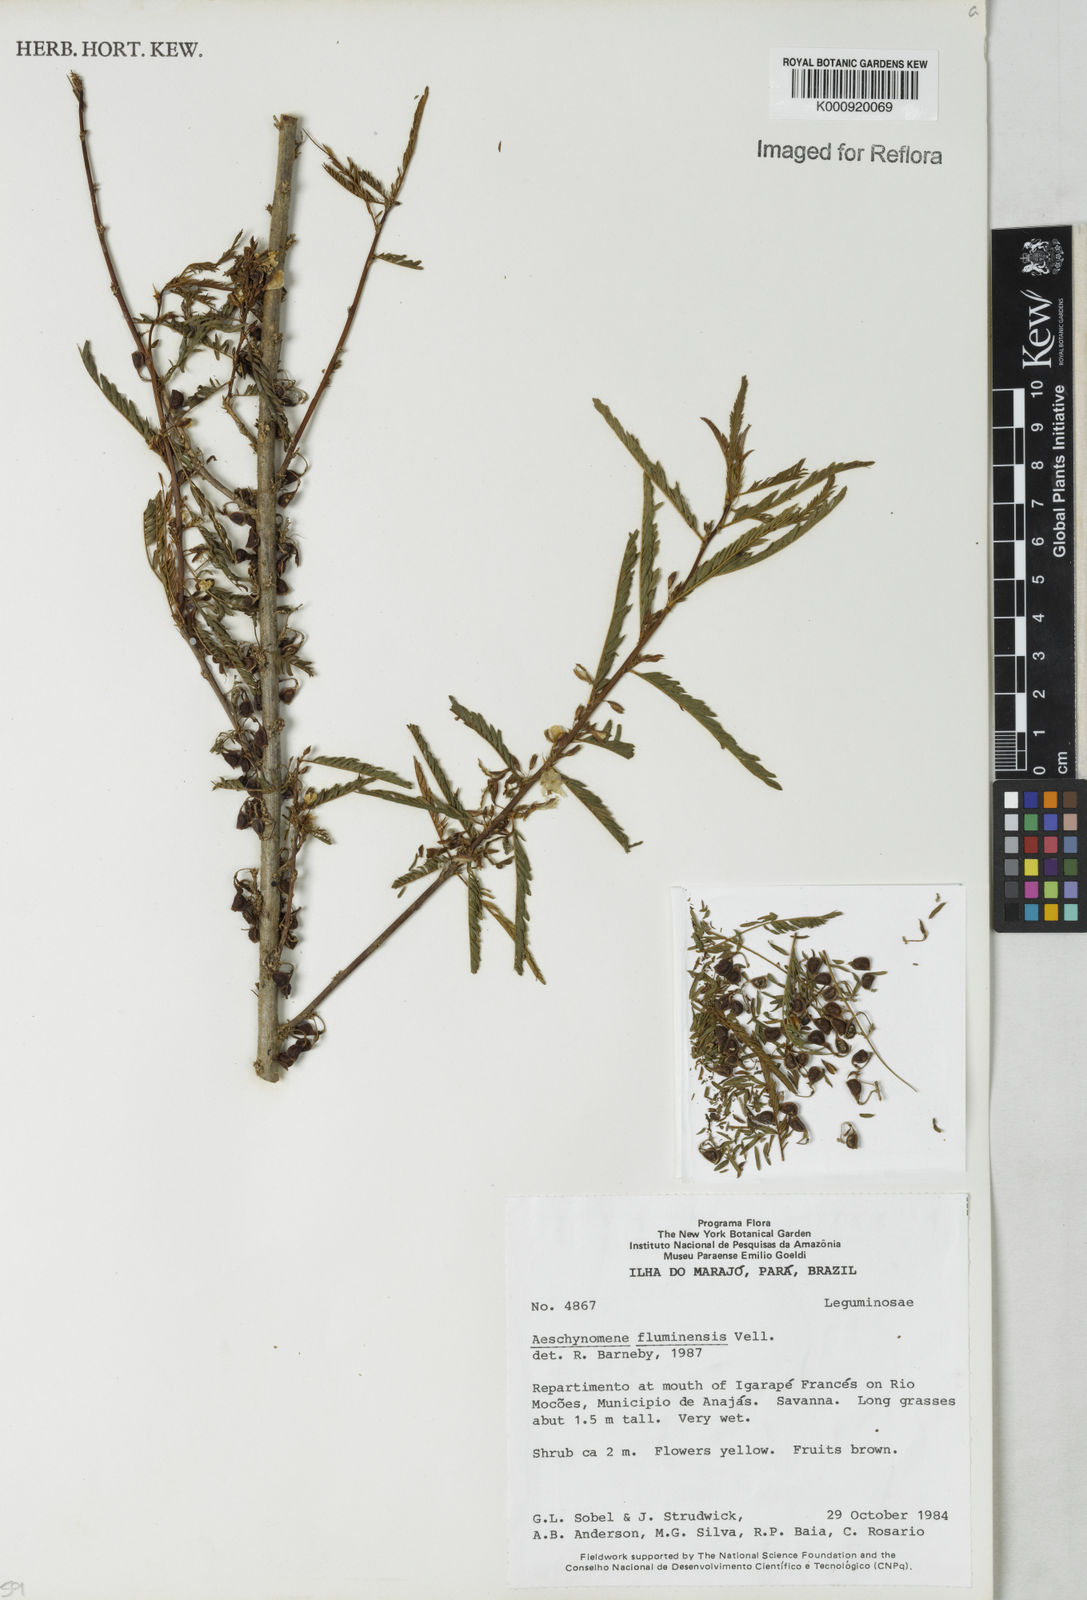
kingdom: Plantae
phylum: Tracheophyta
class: Magnoliopsida
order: Fabales
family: Fabaceae
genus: Aeschynomene
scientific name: Aeschynomene fluminensis
